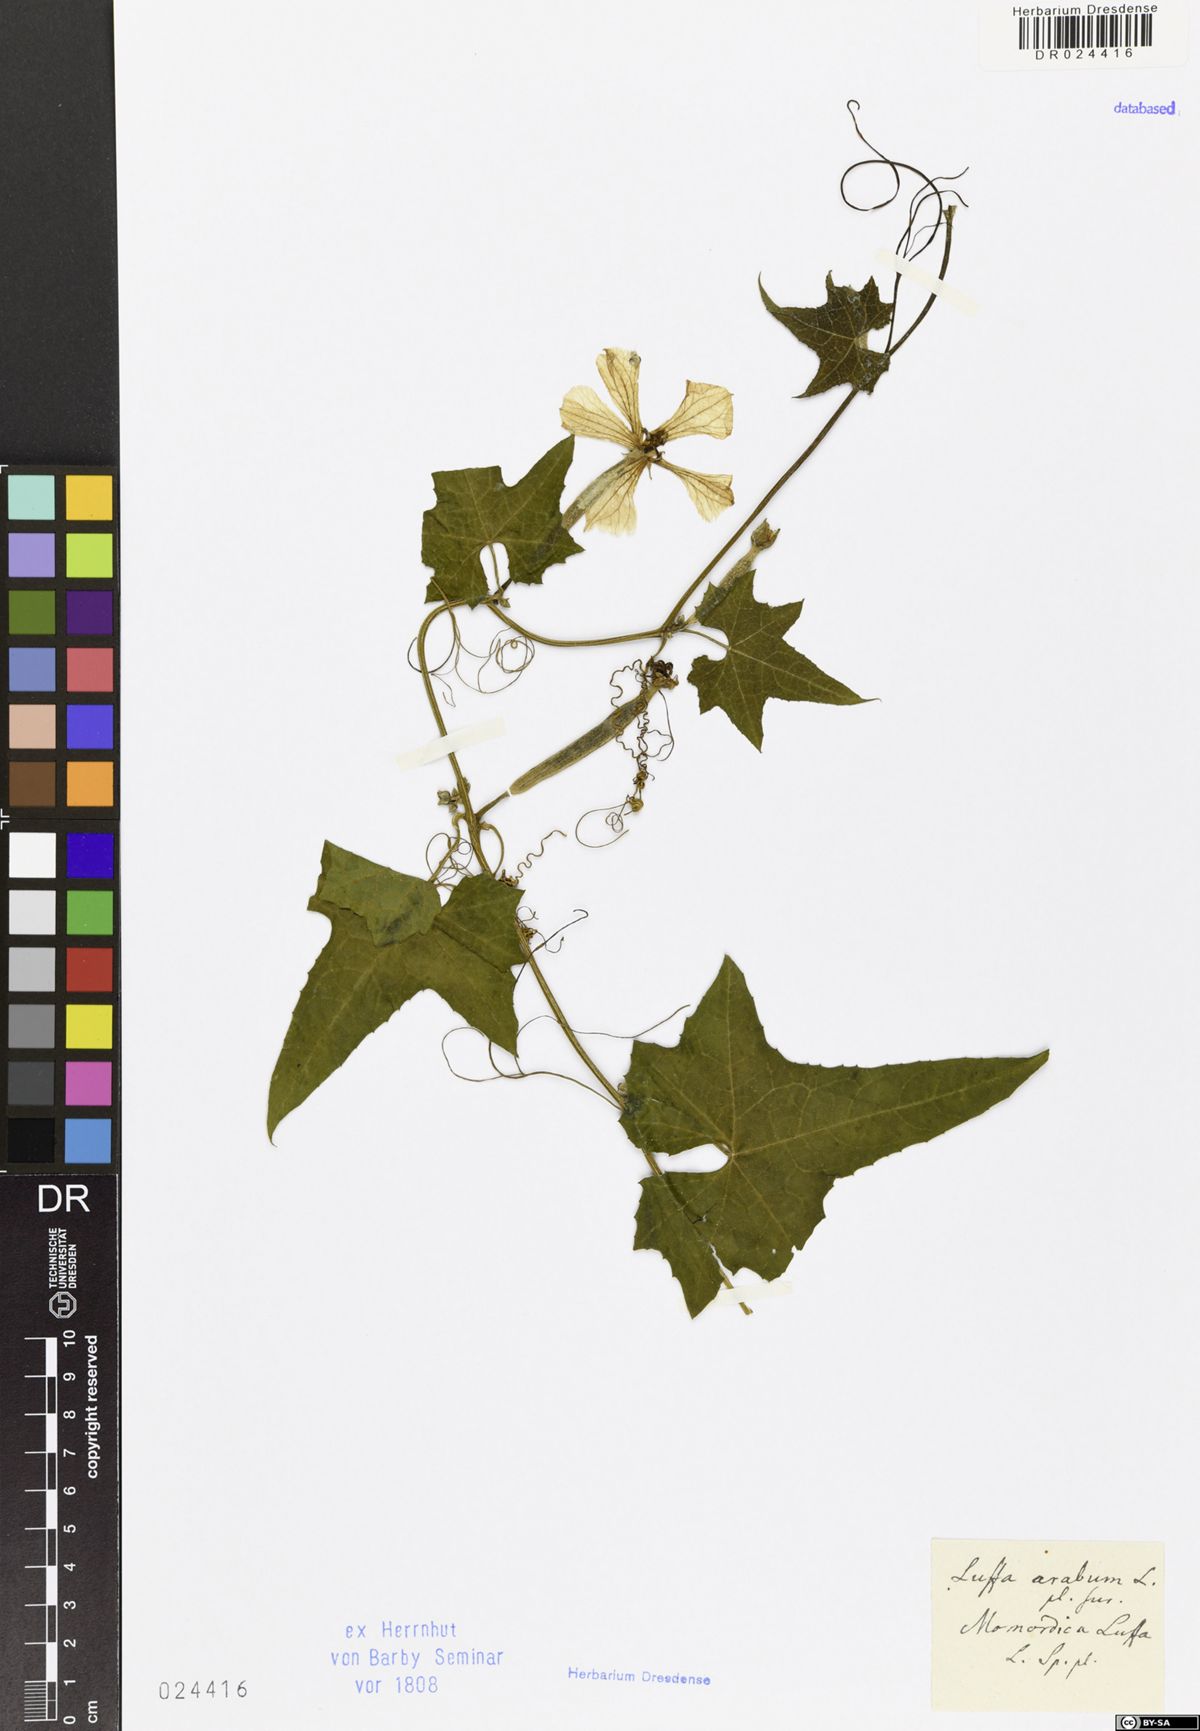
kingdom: Plantae
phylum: Tracheophyta
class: Magnoliopsida
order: Cucurbitales
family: Cucurbitaceae
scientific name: Cucurbitaceae
